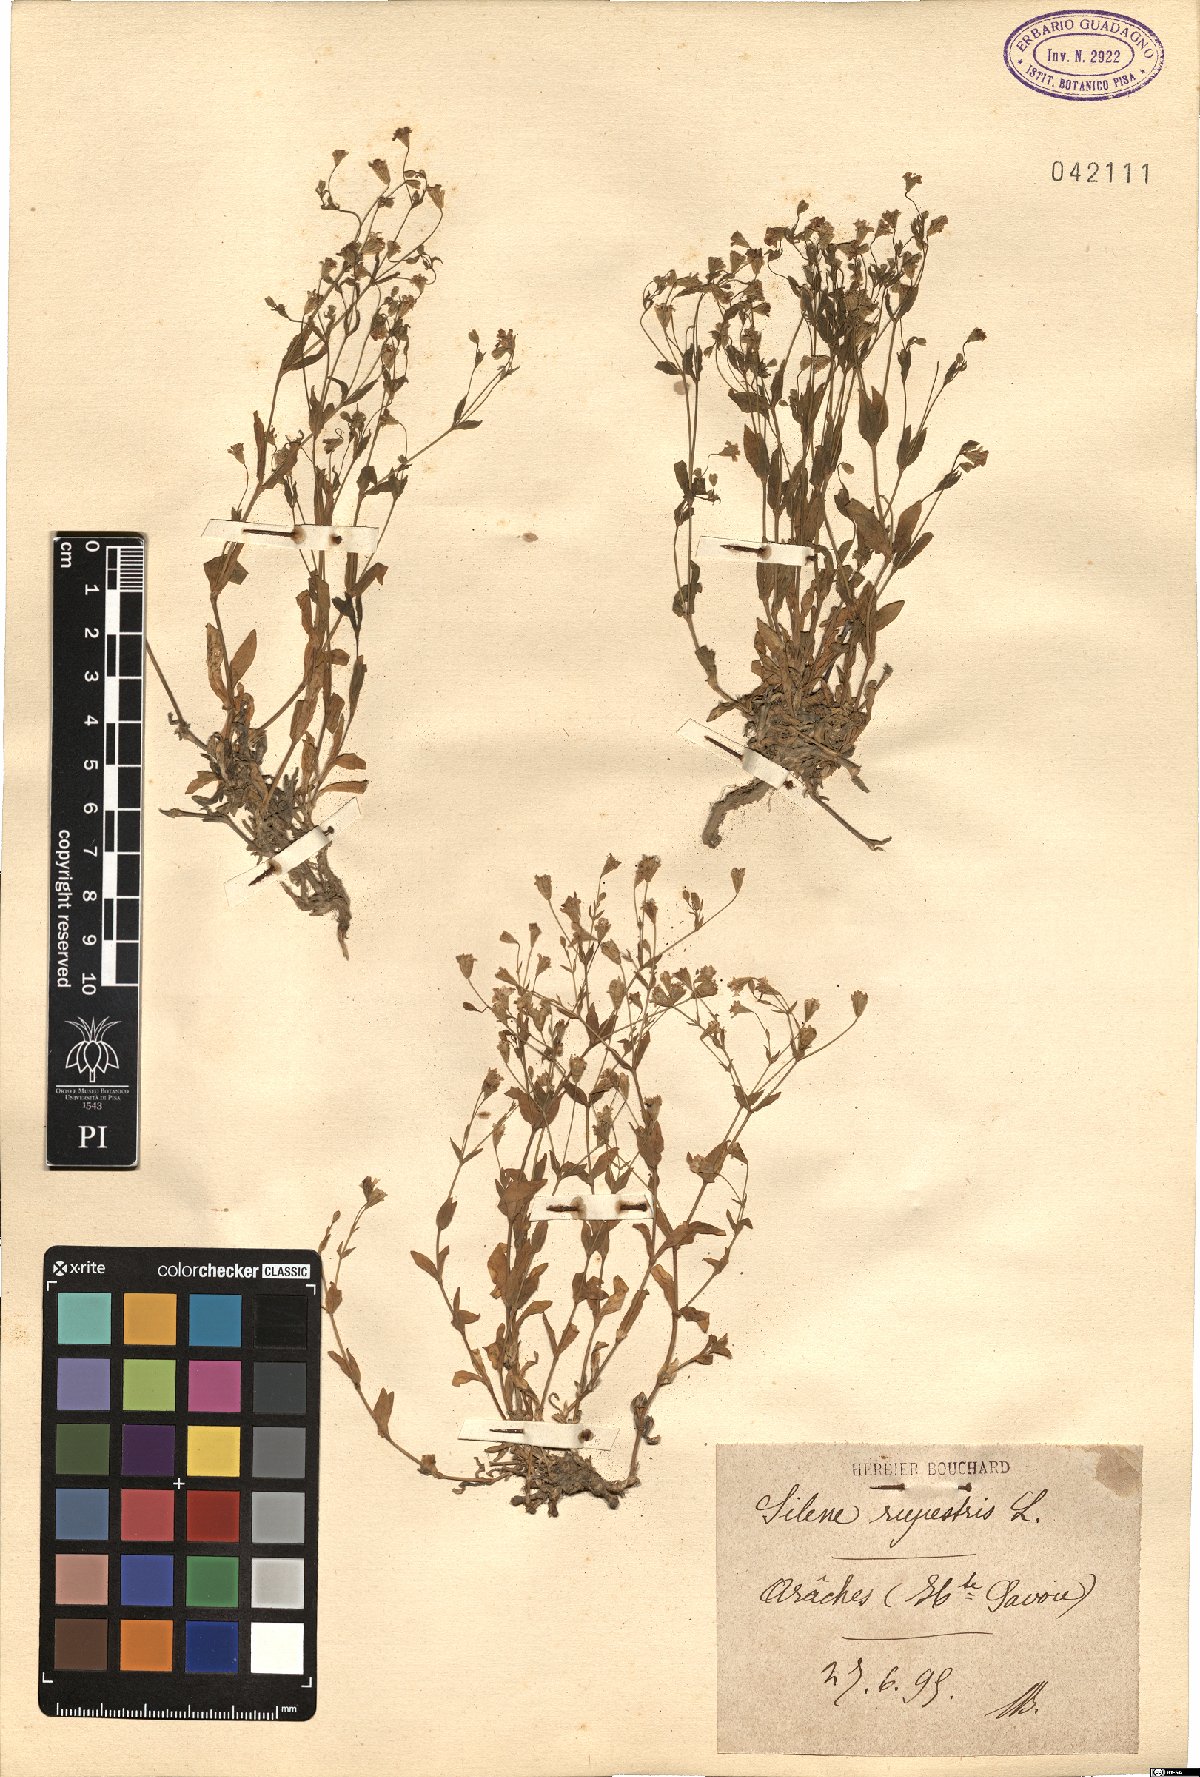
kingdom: Plantae
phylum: Tracheophyta
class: Magnoliopsida
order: Caryophyllales
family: Caryophyllaceae
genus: Atocion
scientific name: Atocion rupestre
